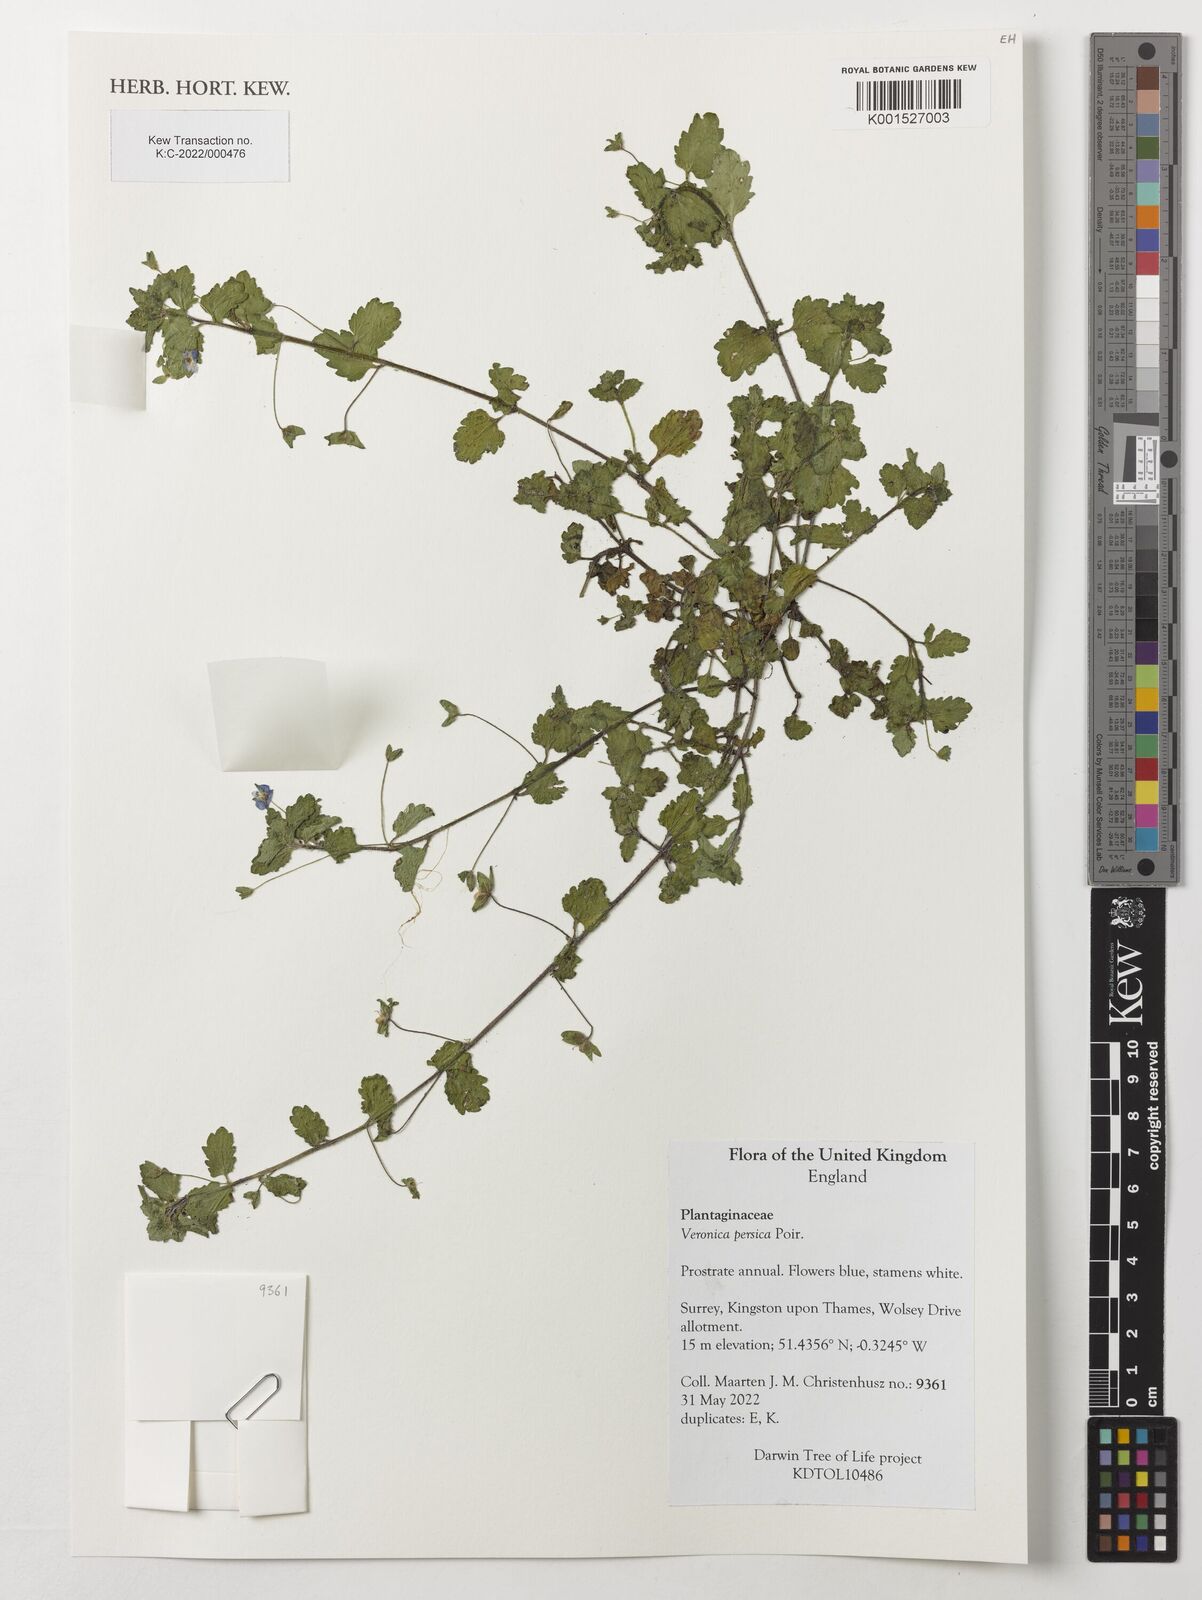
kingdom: Plantae
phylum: Tracheophyta
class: Magnoliopsida
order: Lamiales
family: Plantaginaceae
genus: Veronica
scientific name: Veronica persica
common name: Common field-speedwell
